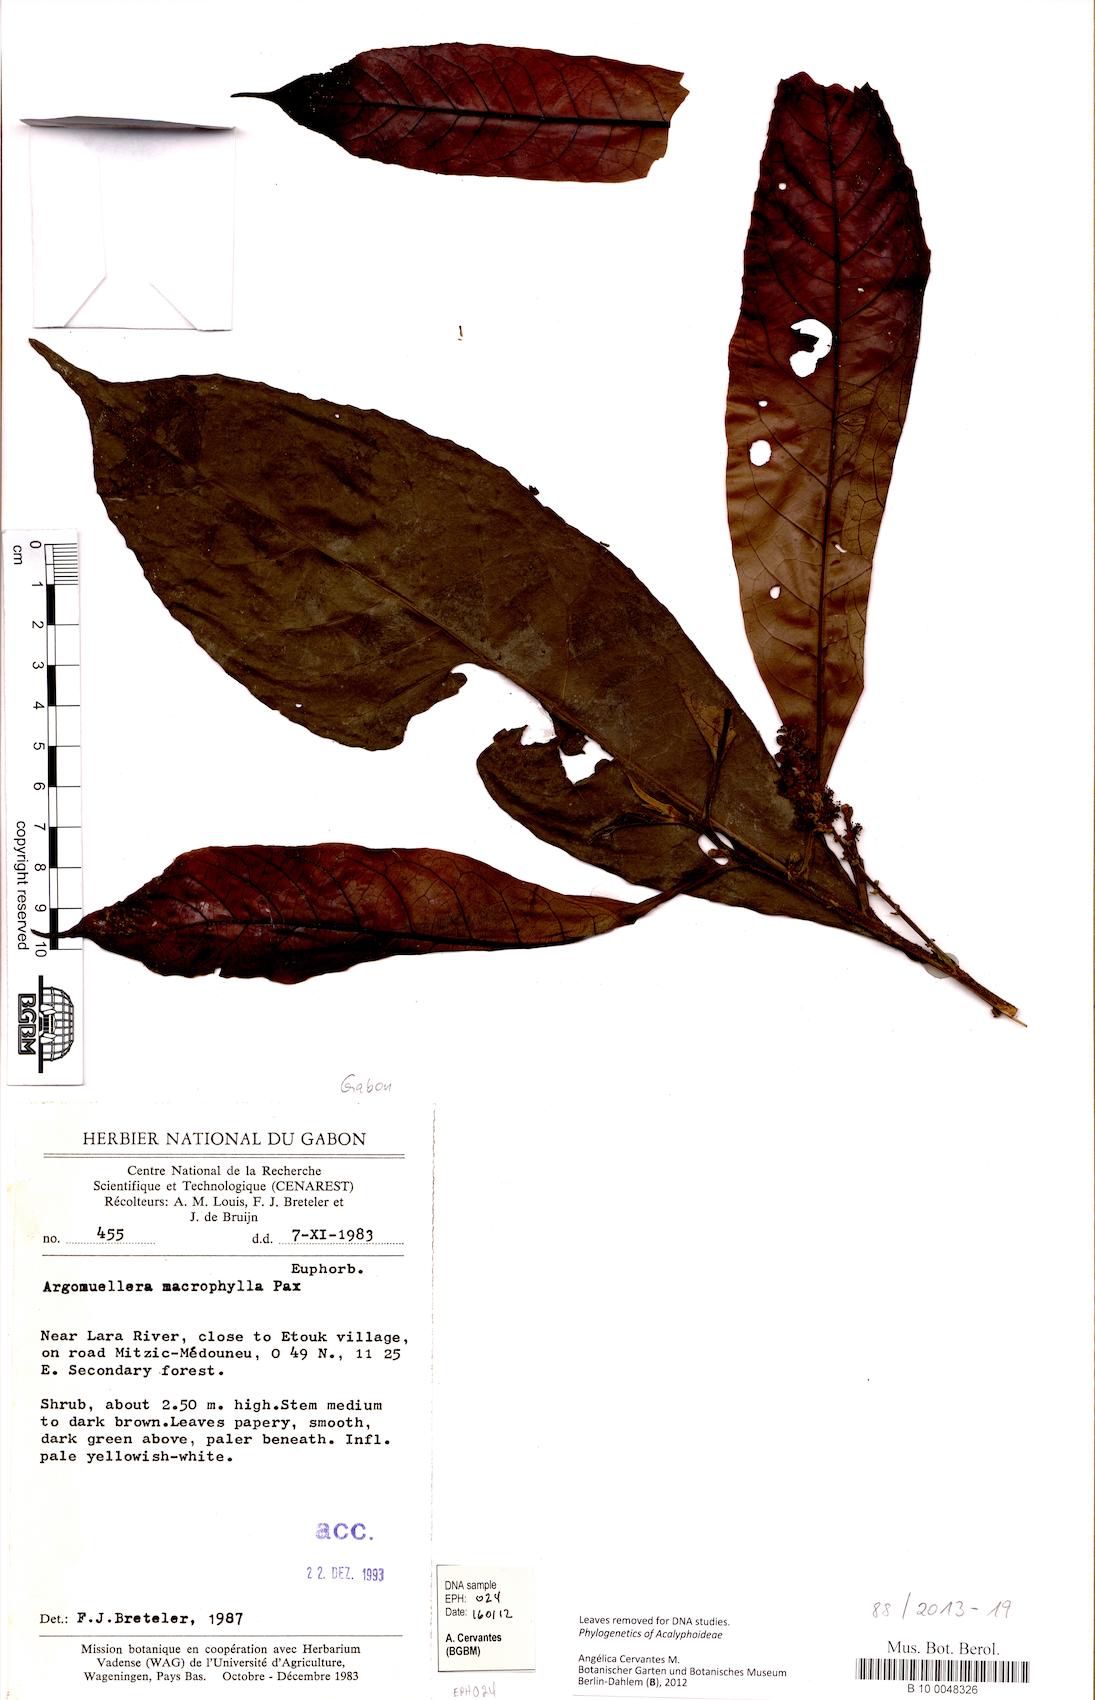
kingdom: Plantae
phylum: Tracheophyta
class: Magnoliopsida
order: Malpighiales
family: Euphorbiaceae
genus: Argomuellera
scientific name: Argomuellera macrophylla
